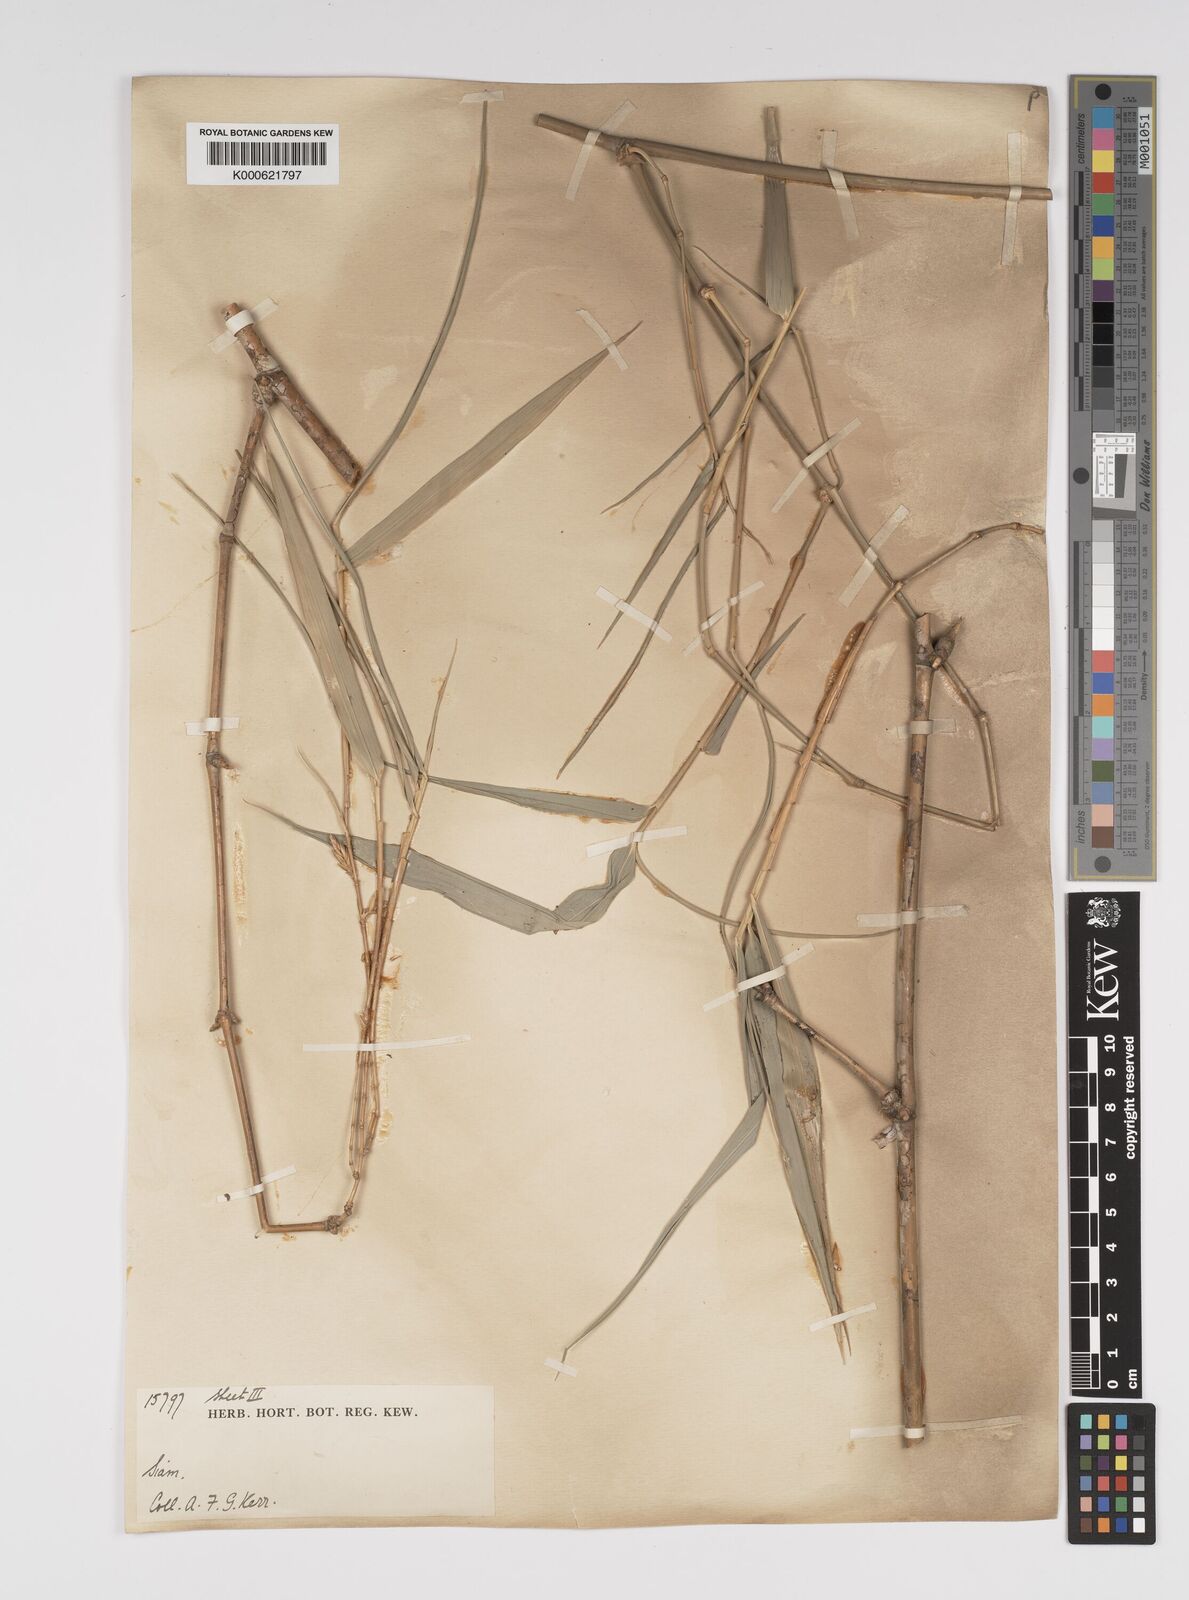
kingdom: Plantae
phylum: Tracheophyta
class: Liliopsida
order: Poales
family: Poaceae
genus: Bambusa
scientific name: Bambusa bambos
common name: Indian thorny bamboo
